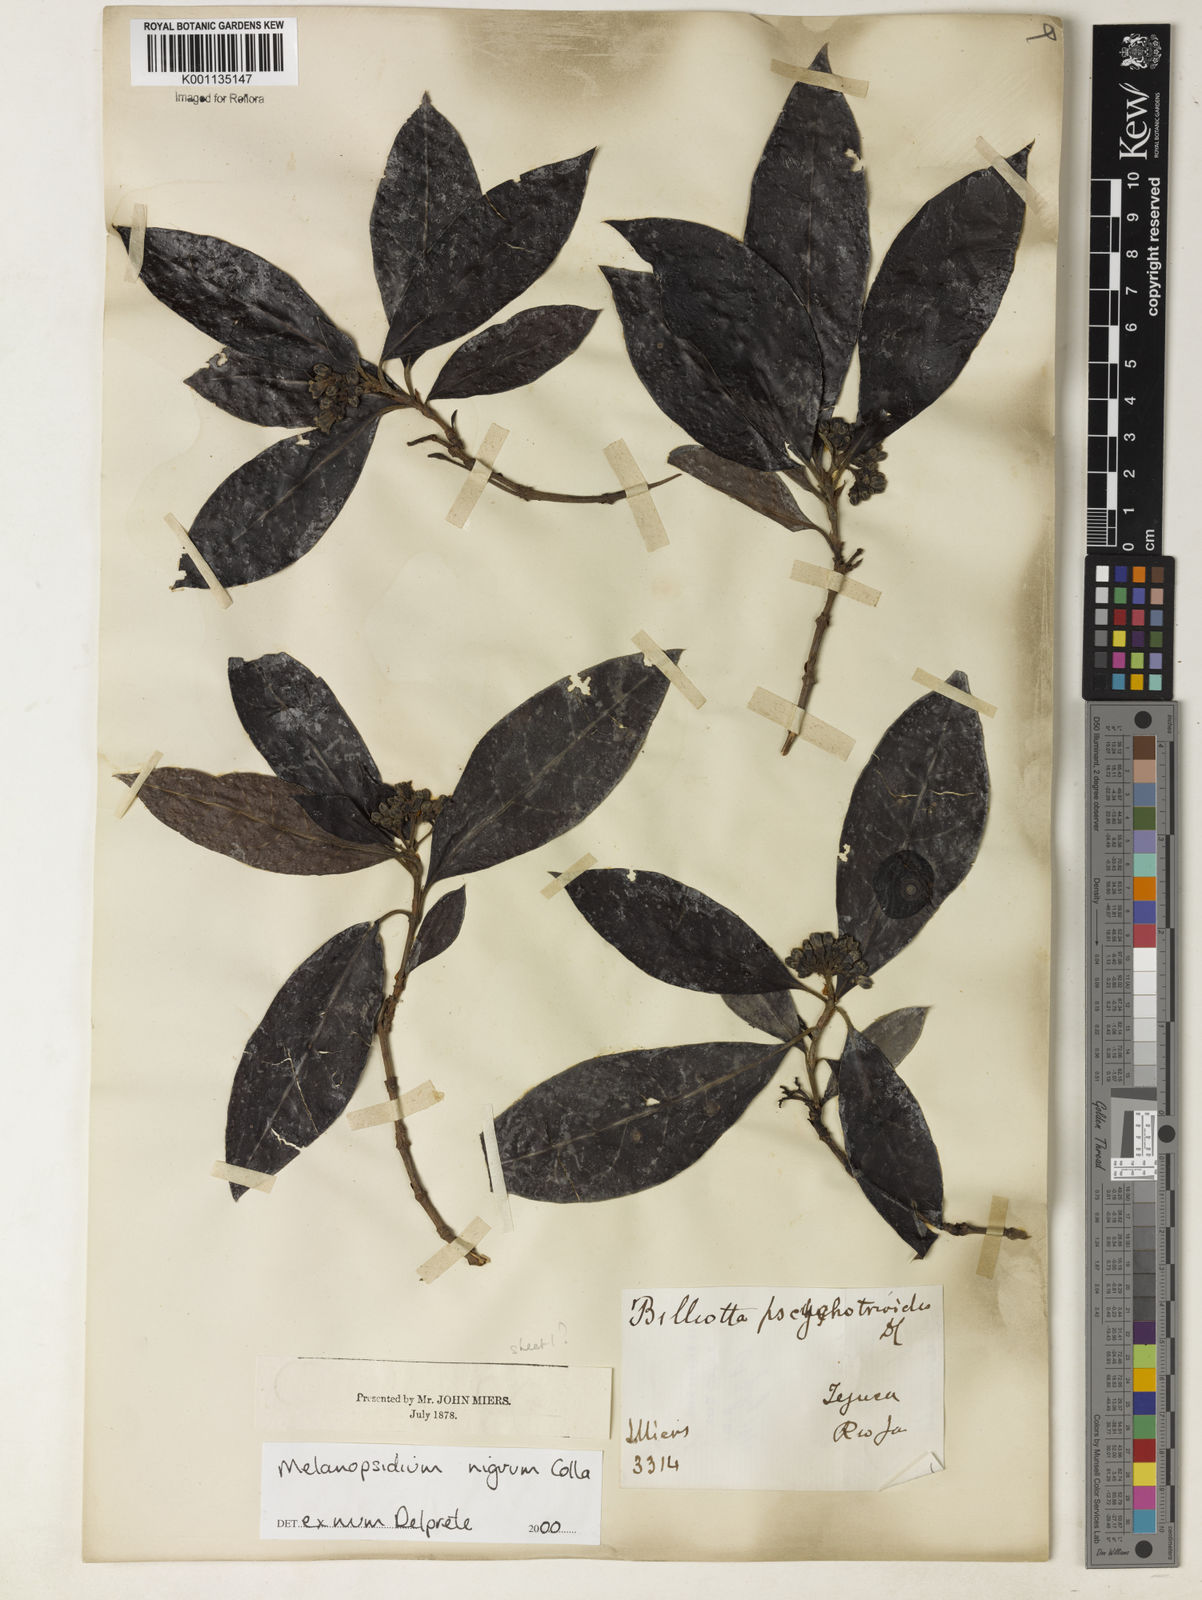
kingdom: Plantae
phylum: Tracheophyta
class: Magnoliopsida
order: Gentianales
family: Rubiaceae
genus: Melanopsidium
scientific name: Melanopsidium nigrum
